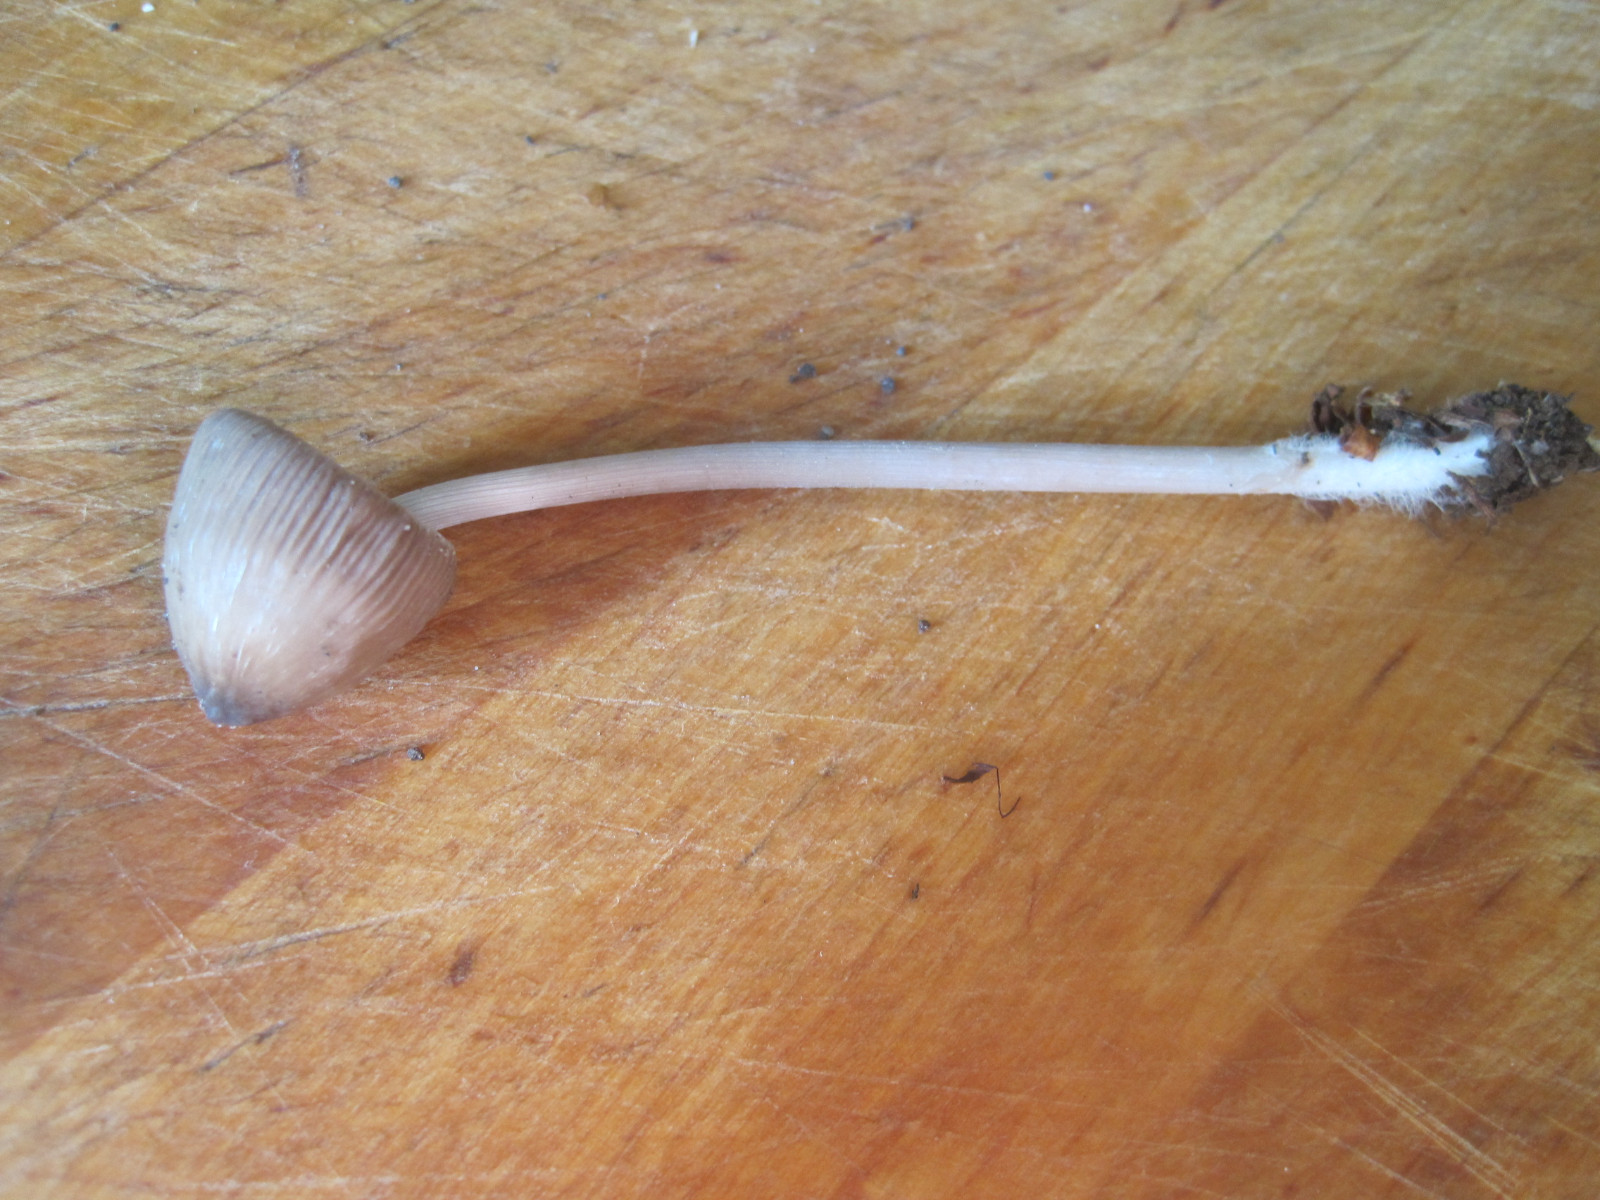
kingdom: Fungi
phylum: Basidiomycota
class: Agaricomycetes
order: Agaricales
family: Mycenaceae
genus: Mycena
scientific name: Mycena polygramma
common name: mangestribet huesvamp
